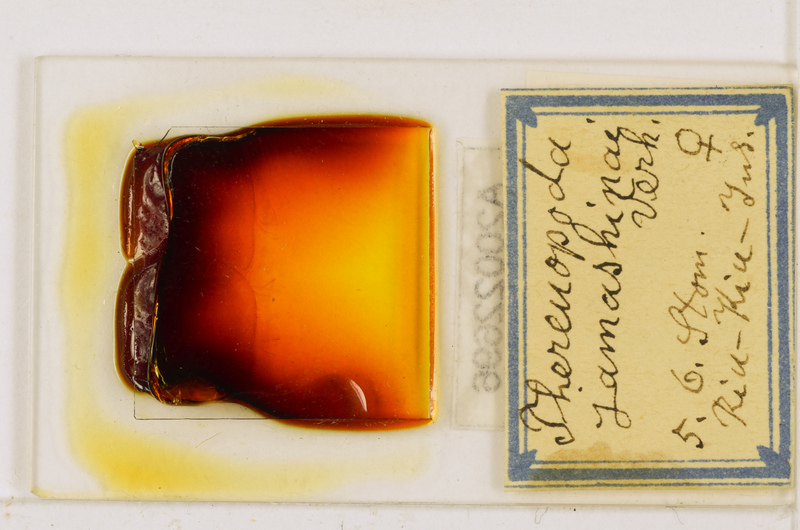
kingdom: Animalia
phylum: Arthropoda
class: Chilopoda
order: Scutigeromorpha
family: Scutigeridae
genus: Thereuopoda
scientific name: Thereuopoda clunifera
